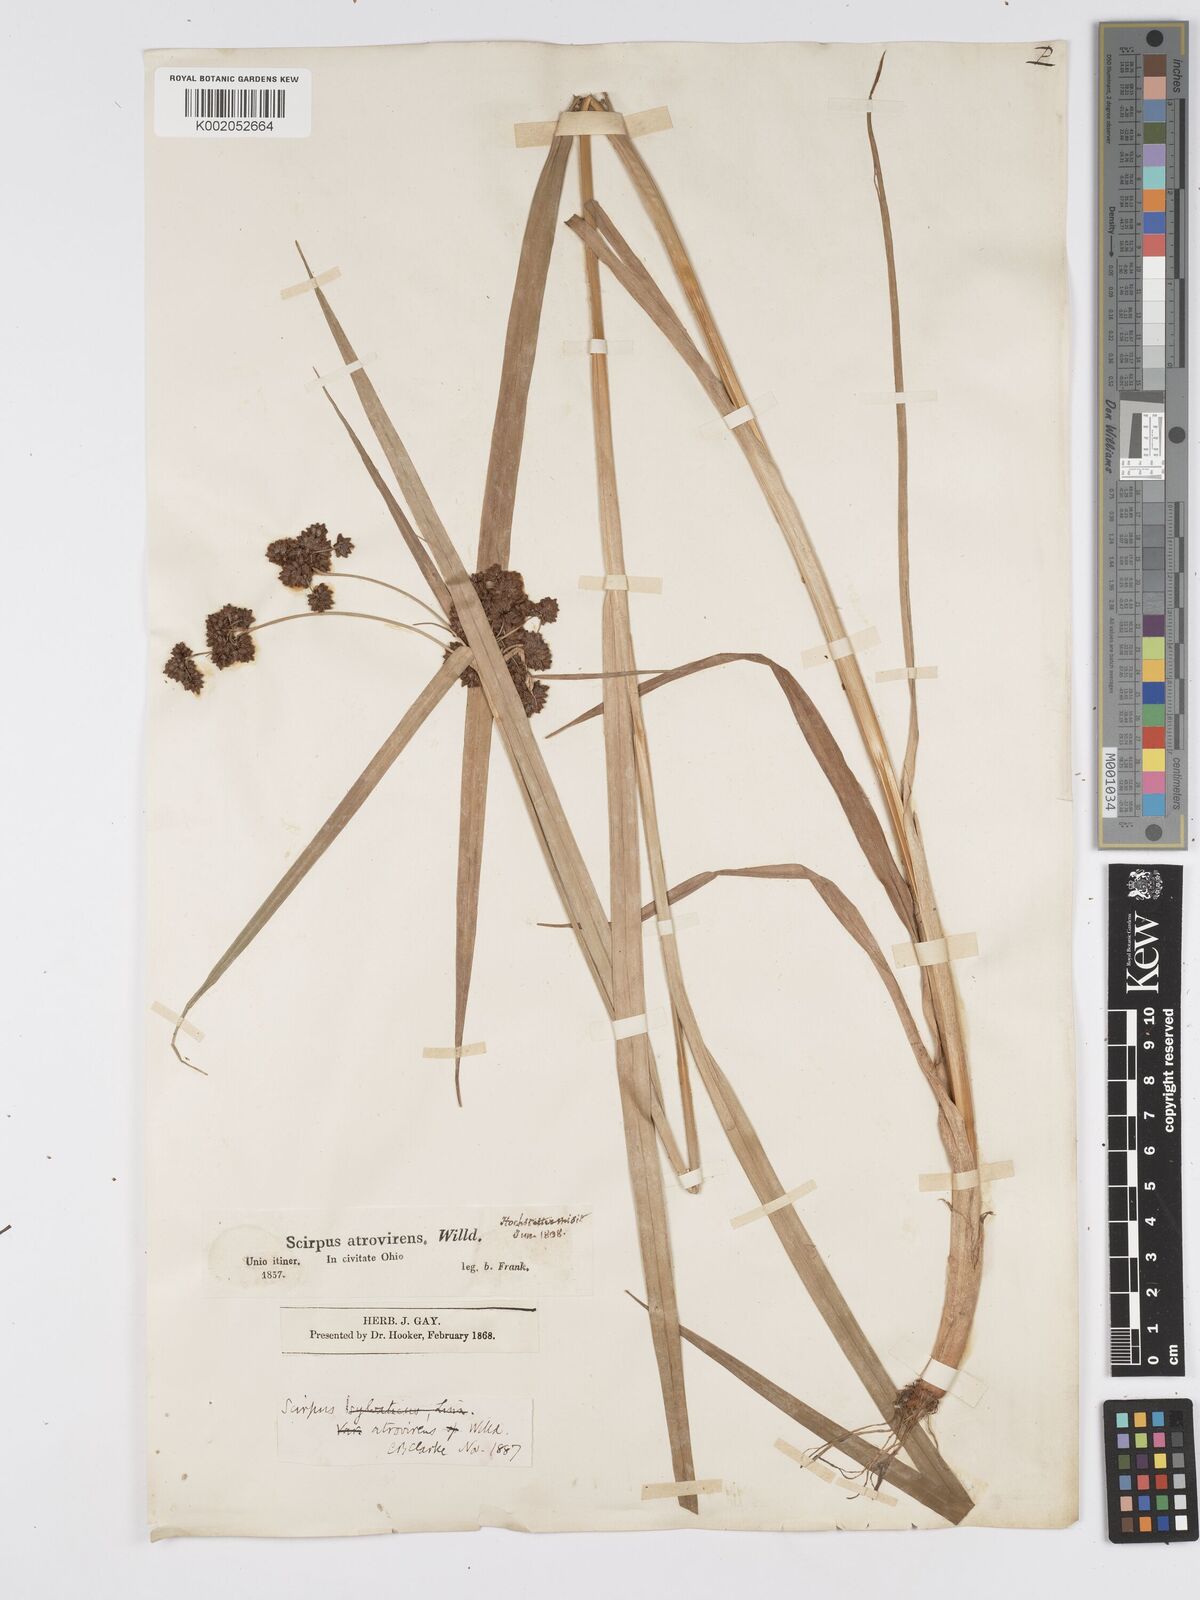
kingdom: Plantae
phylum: Tracheophyta
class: Liliopsida
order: Poales
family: Cyperaceae
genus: Scirpus
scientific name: Scirpus atrovirens
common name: Black bulrush
